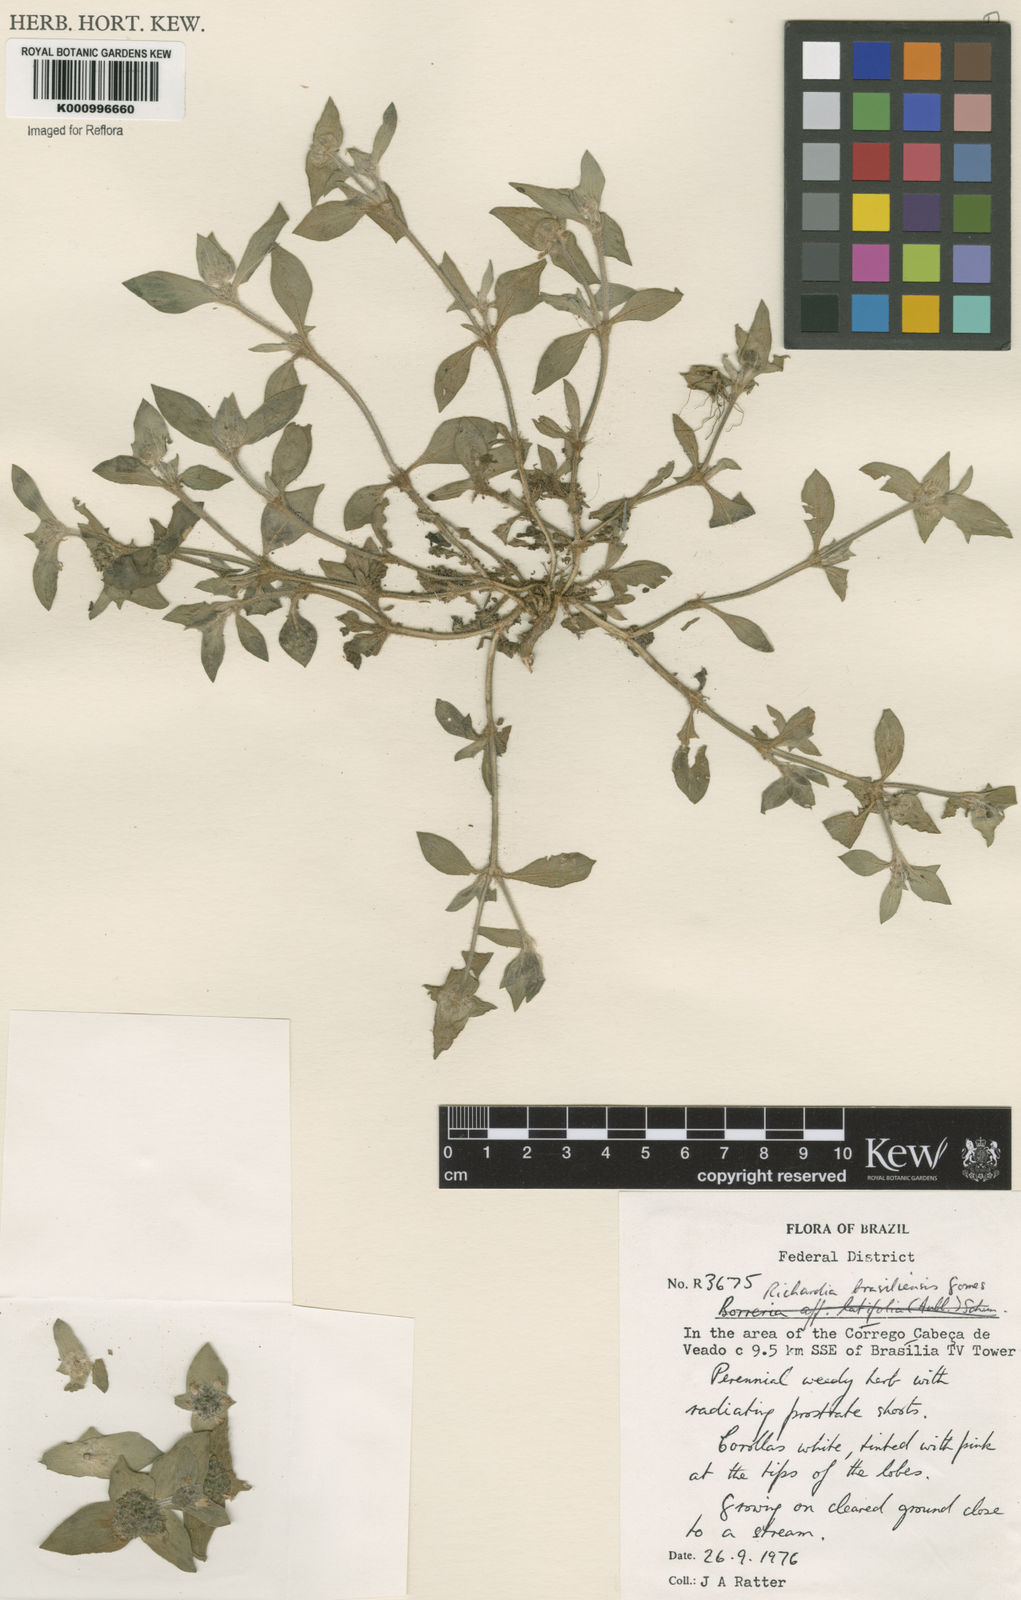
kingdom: Plantae
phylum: Tracheophyta
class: Magnoliopsida
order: Gentianales
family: Rubiaceae
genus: Richardia
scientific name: Richardia brasiliensis
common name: Tropical mexican clover
